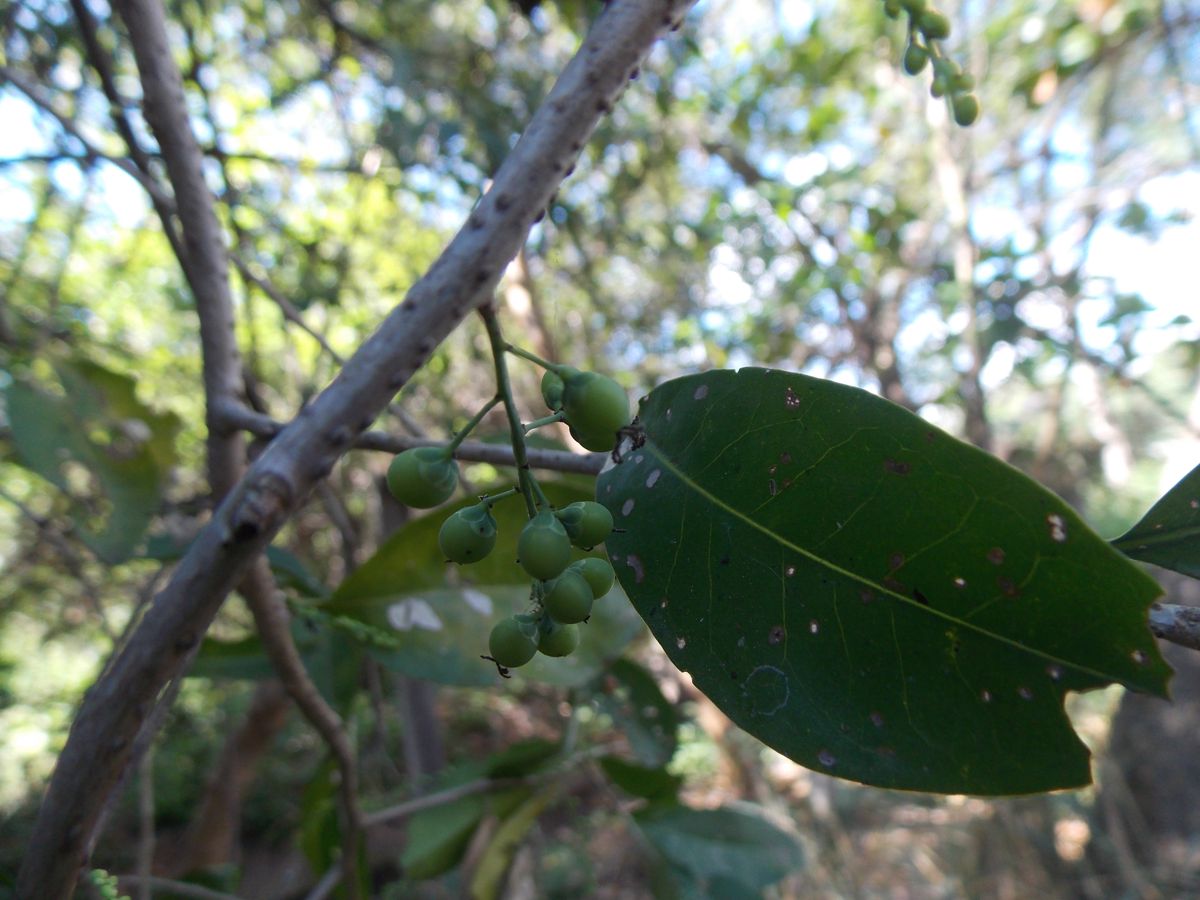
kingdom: Plantae
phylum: Tracheophyta
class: Magnoliopsida
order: Caryophyllales
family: Achatocarpaceae
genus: Achatocarpus
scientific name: Achatocarpus nigricans
